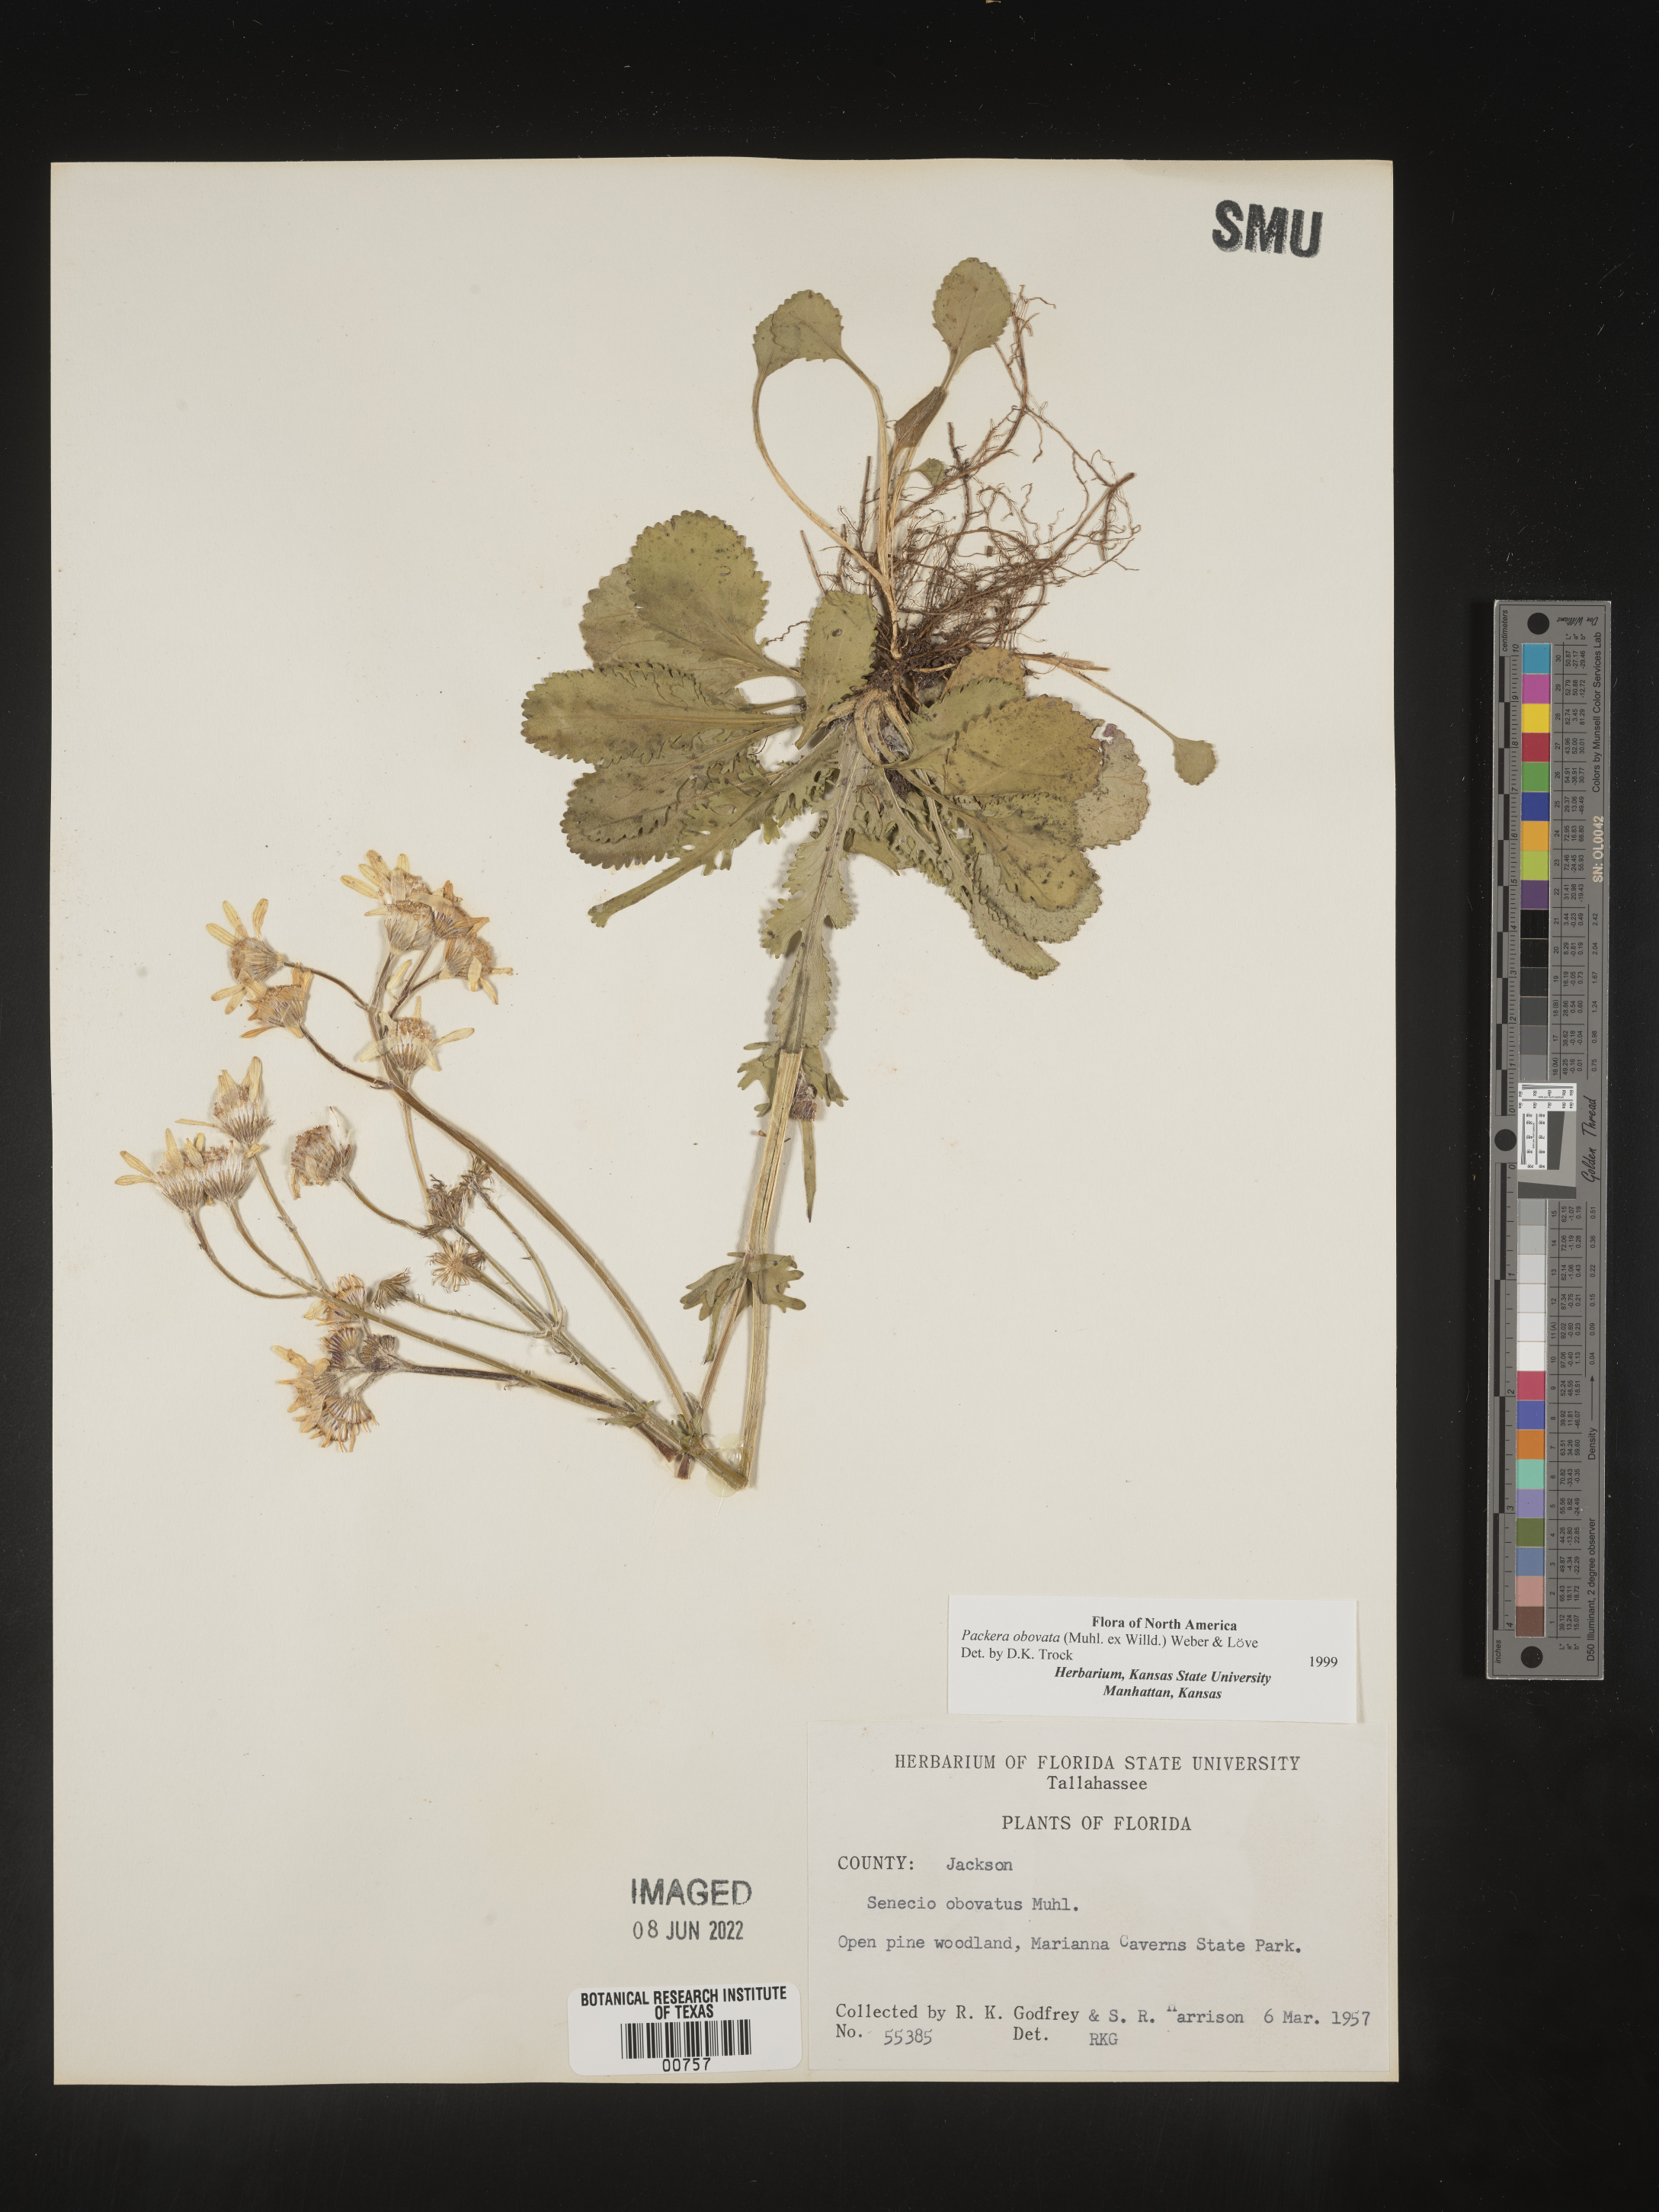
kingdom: Plantae
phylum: Tracheophyta
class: Magnoliopsida
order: Asterales
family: Asteraceae
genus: Packera
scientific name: Packera obovata
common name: Round-leaf ragwort
